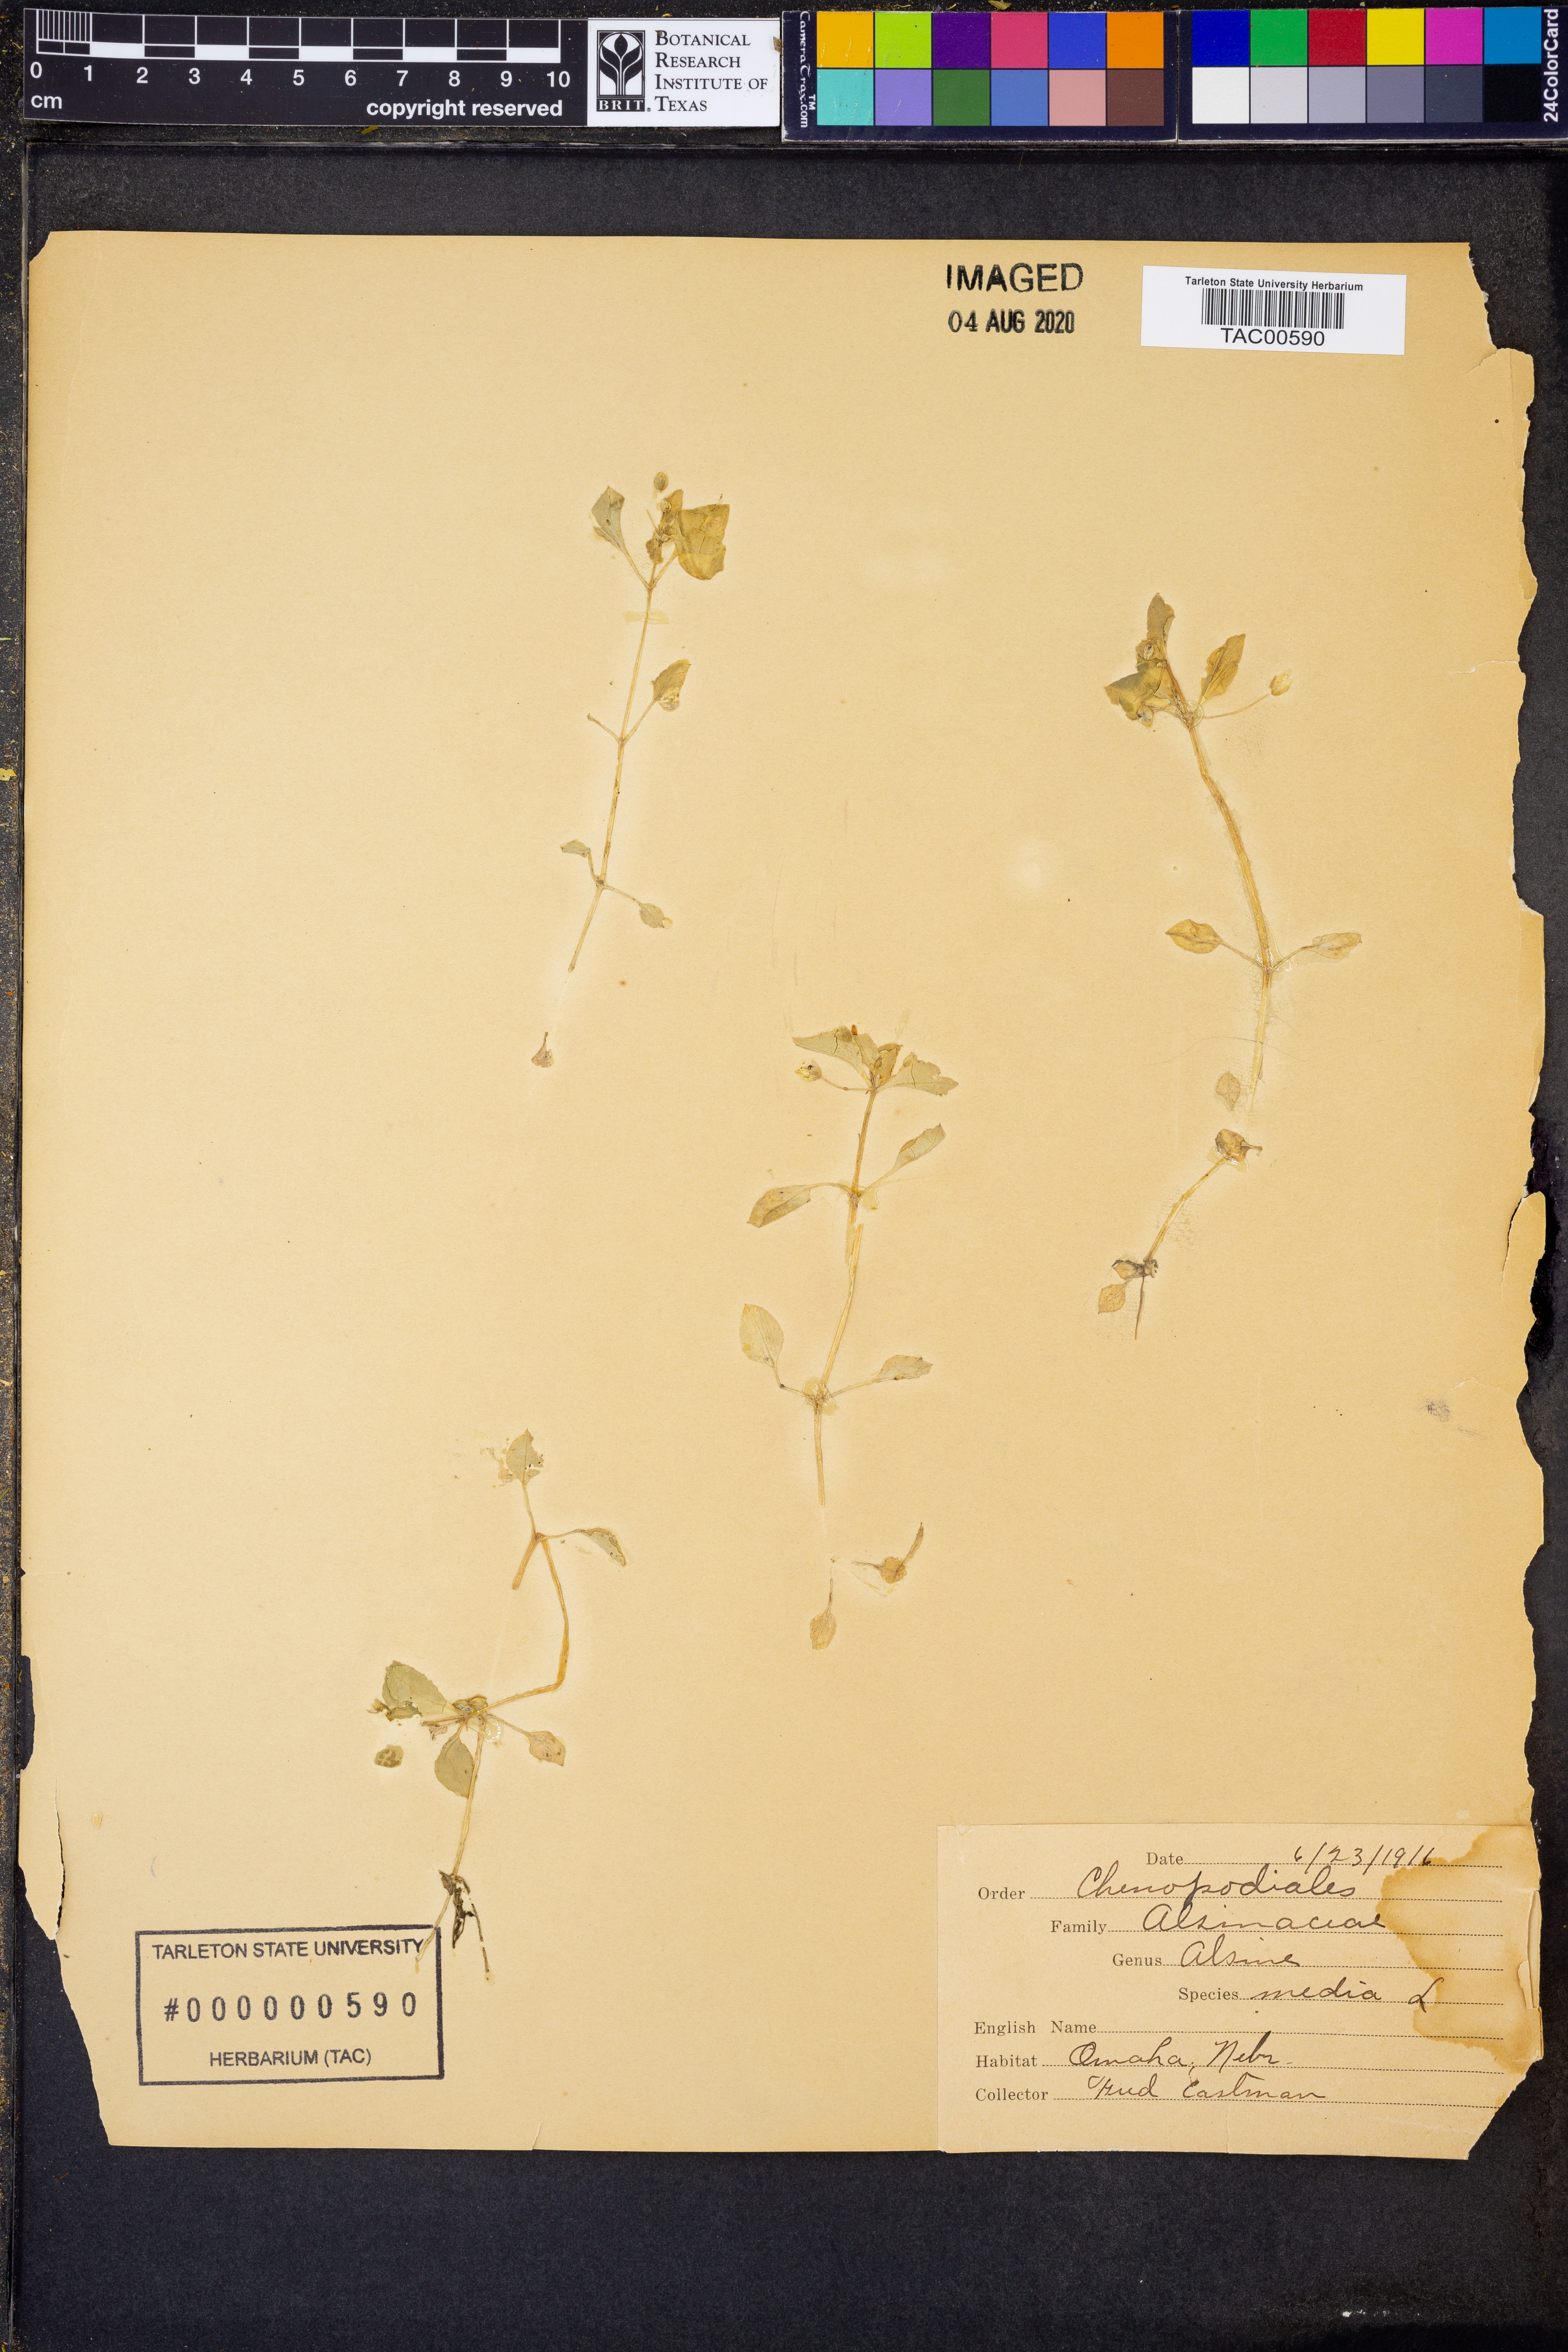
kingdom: Plantae
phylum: Tracheophyta
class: Magnoliopsida
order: Caryophyllales
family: Caryophyllaceae
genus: Stellaria
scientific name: Stellaria media
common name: Common chickweed
